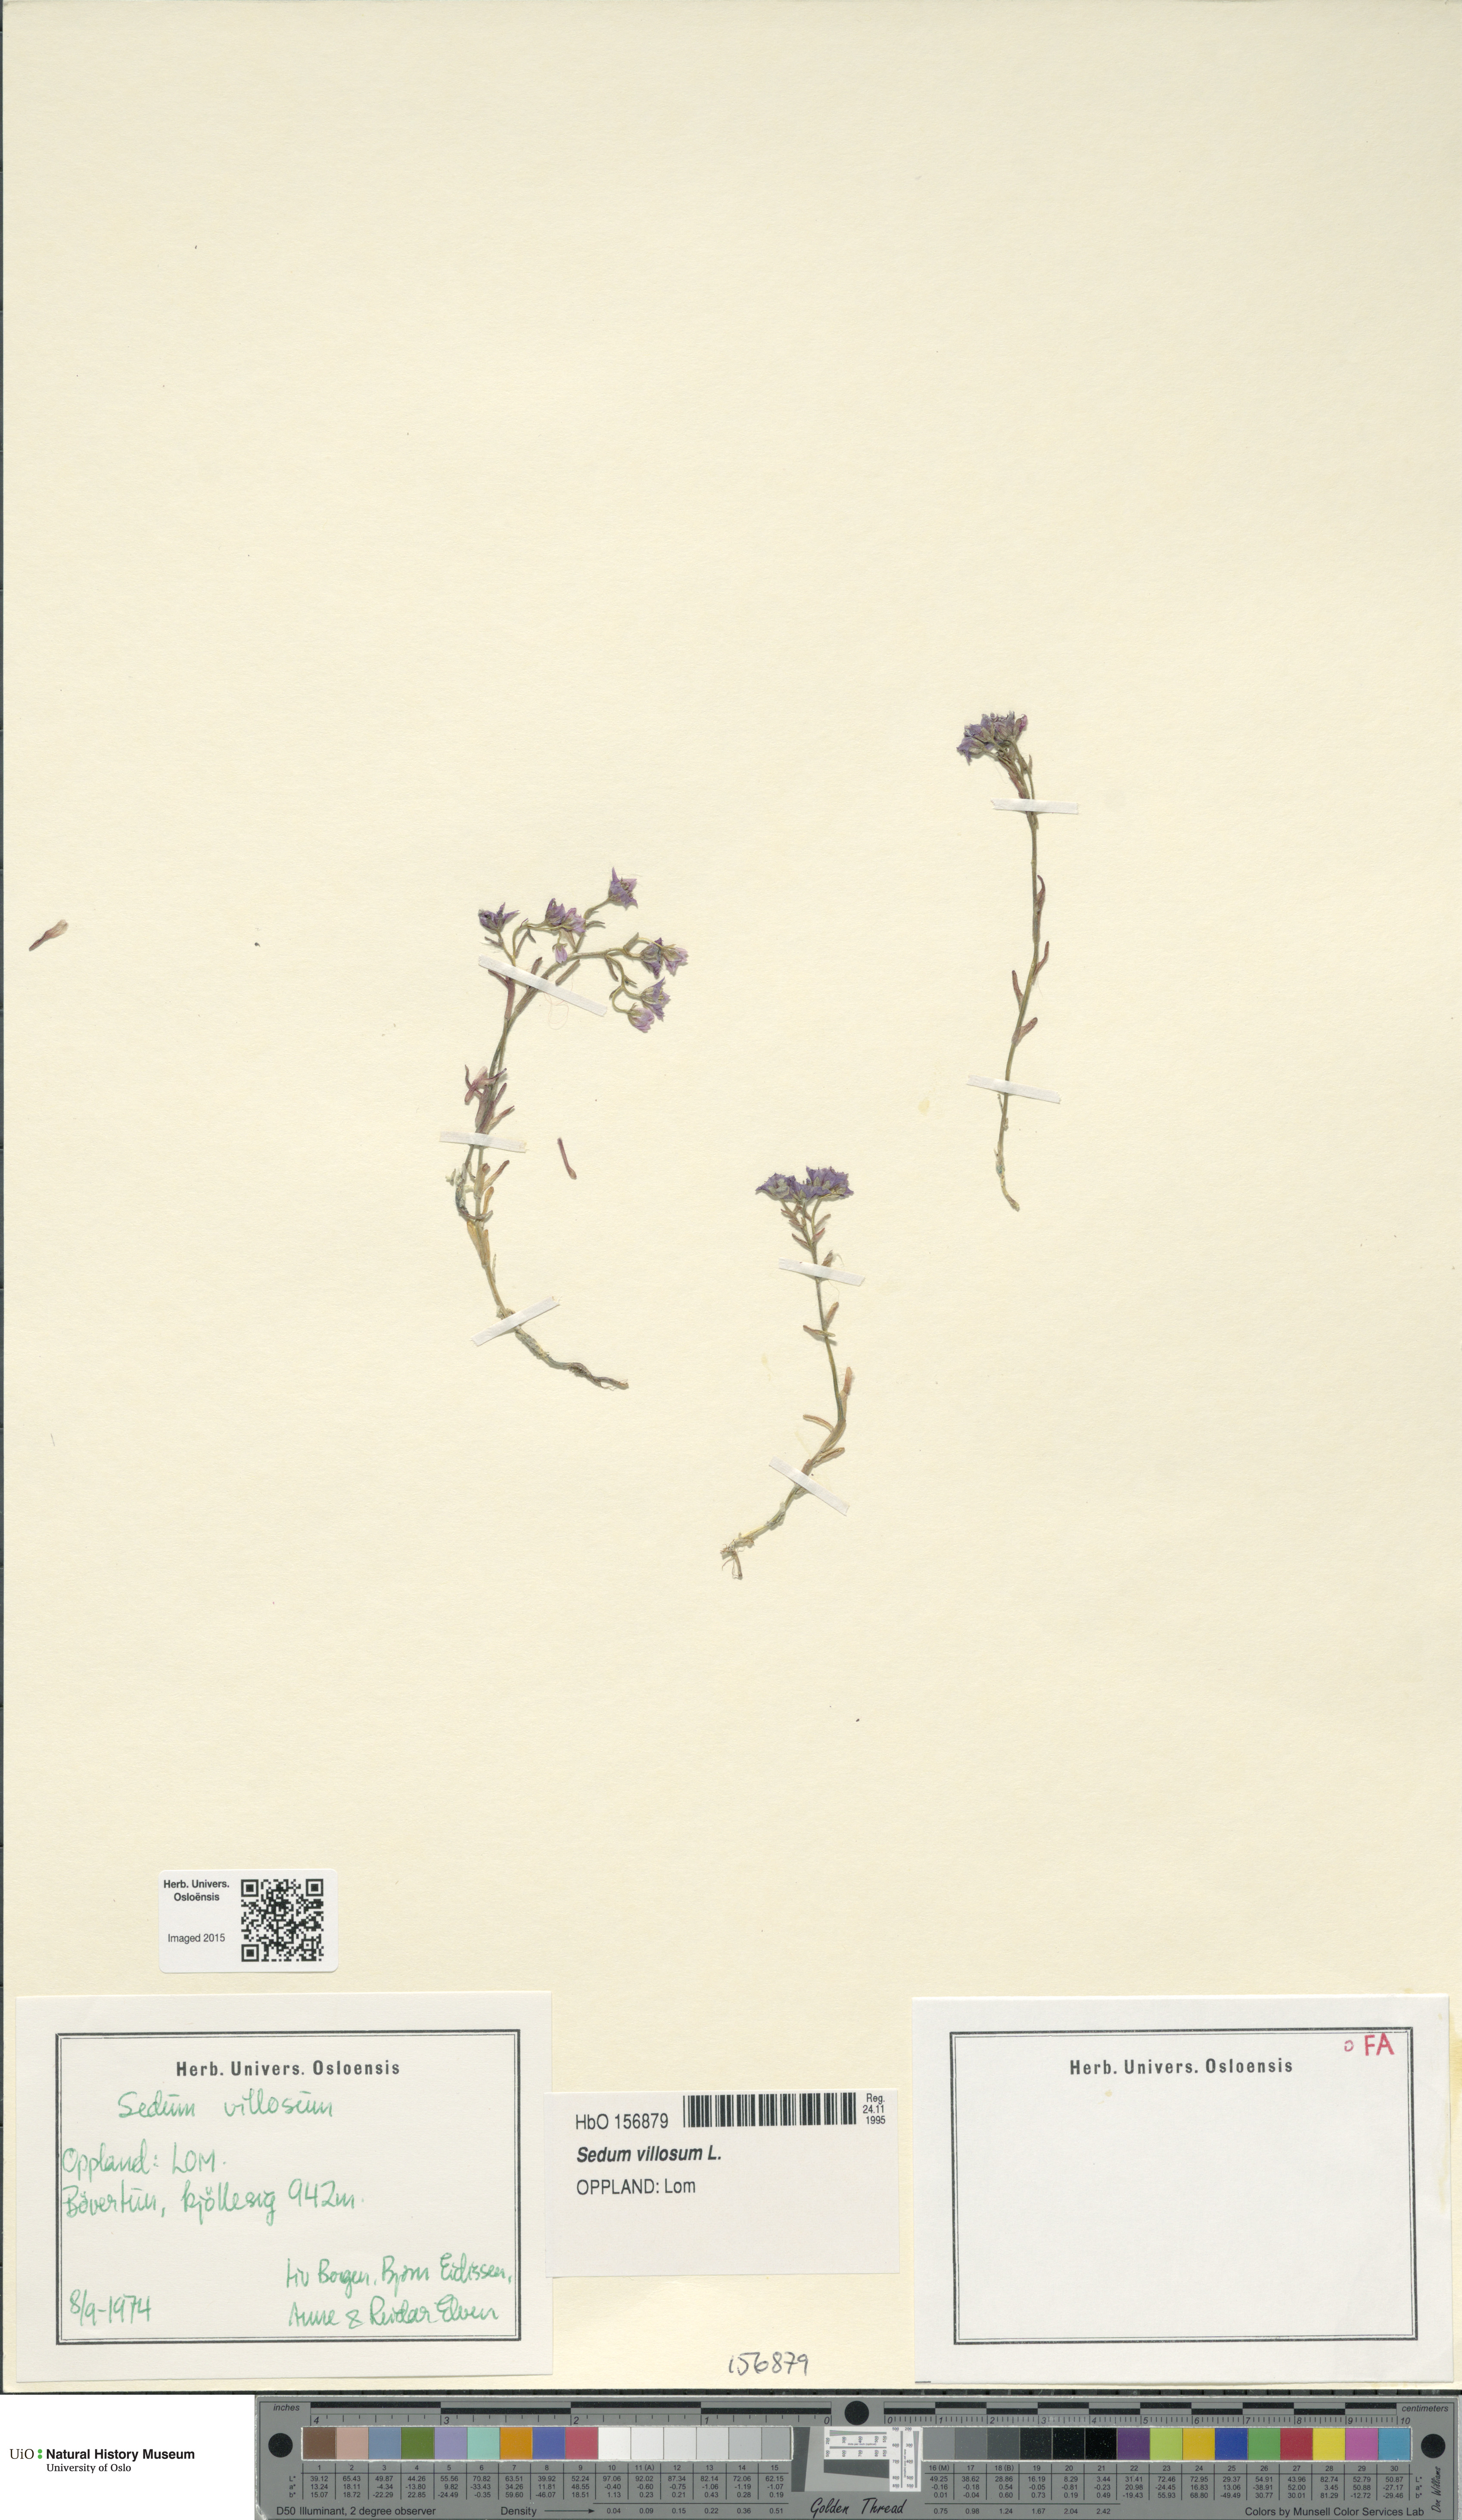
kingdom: Plantae
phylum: Tracheophyta
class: Magnoliopsida
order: Saxifragales
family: Crassulaceae
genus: Sedum
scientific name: Sedum villosum
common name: Hairy stonecrop
